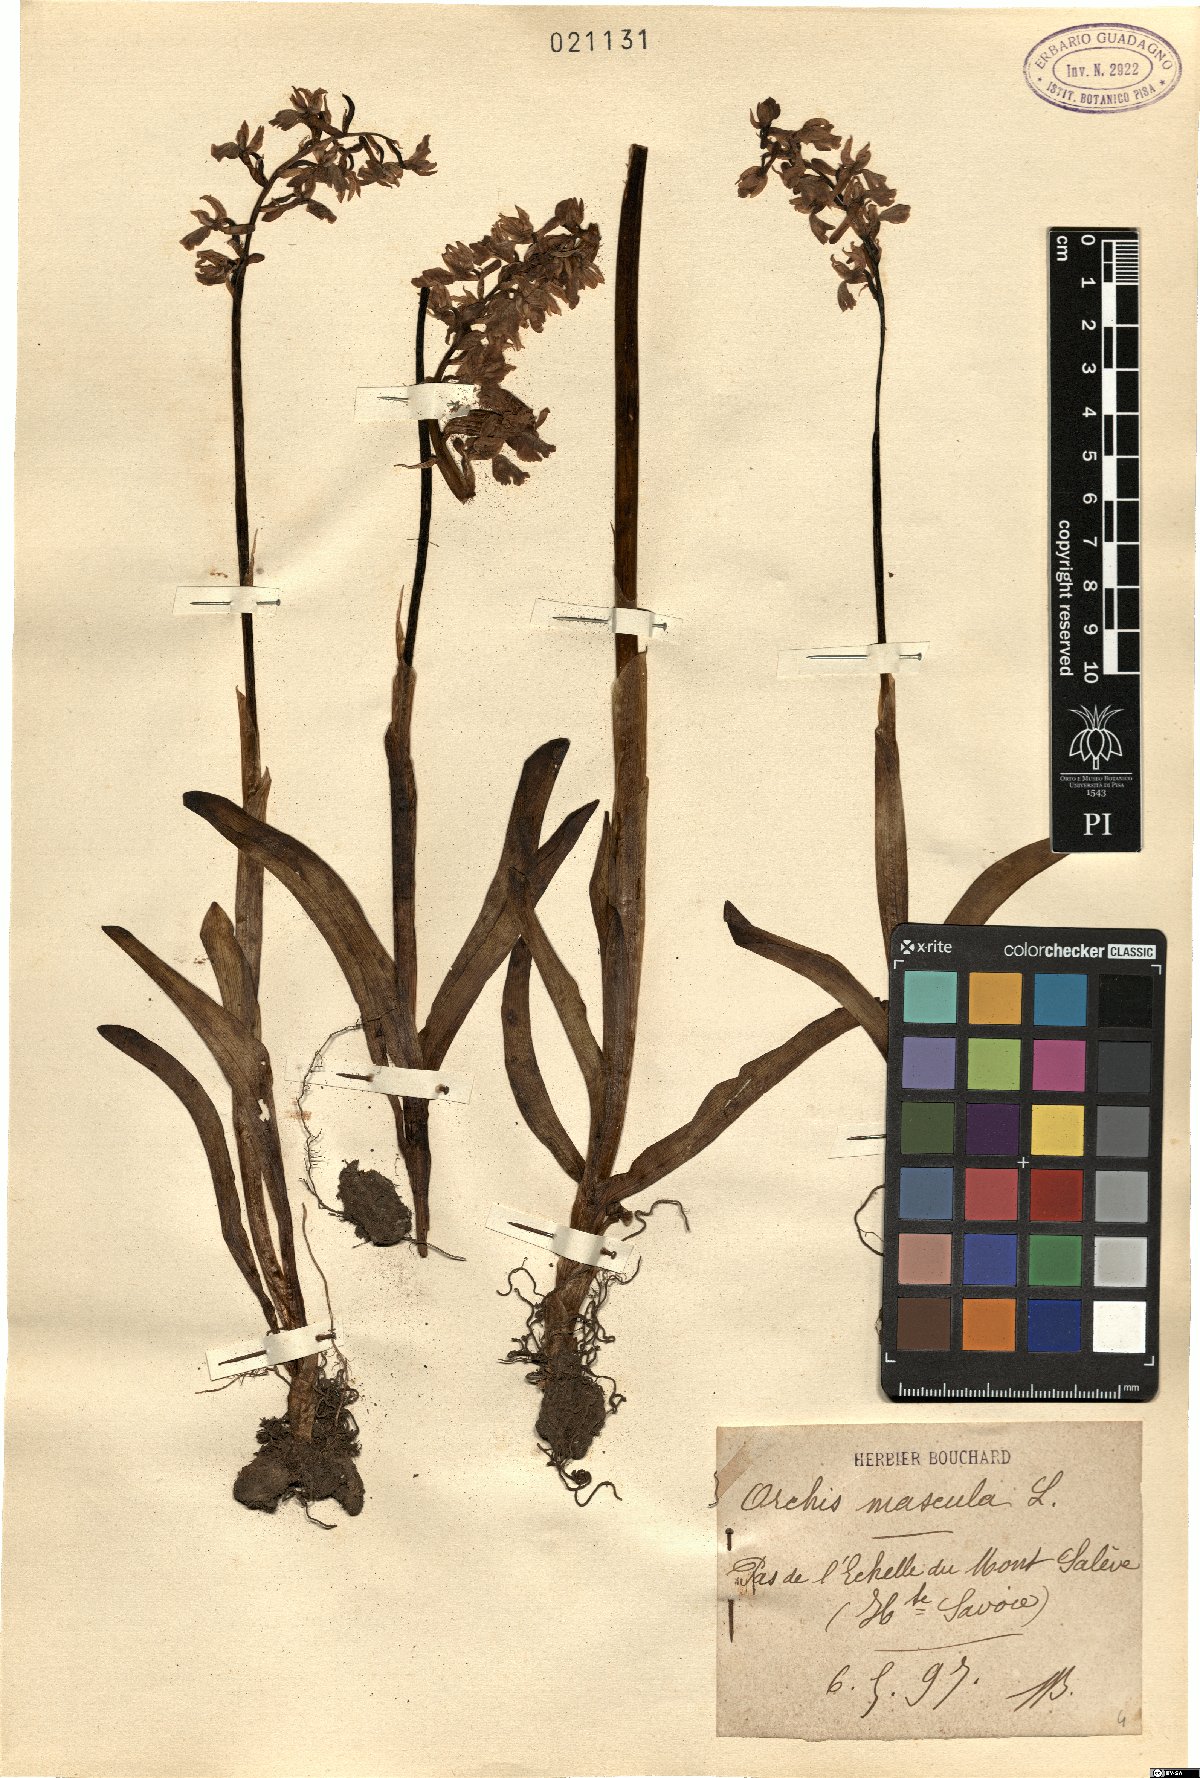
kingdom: Plantae
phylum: Tracheophyta
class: Liliopsida
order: Asparagales
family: Orchidaceae
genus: Orchis
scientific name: Orchis mascula
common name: Early-purple orchid
